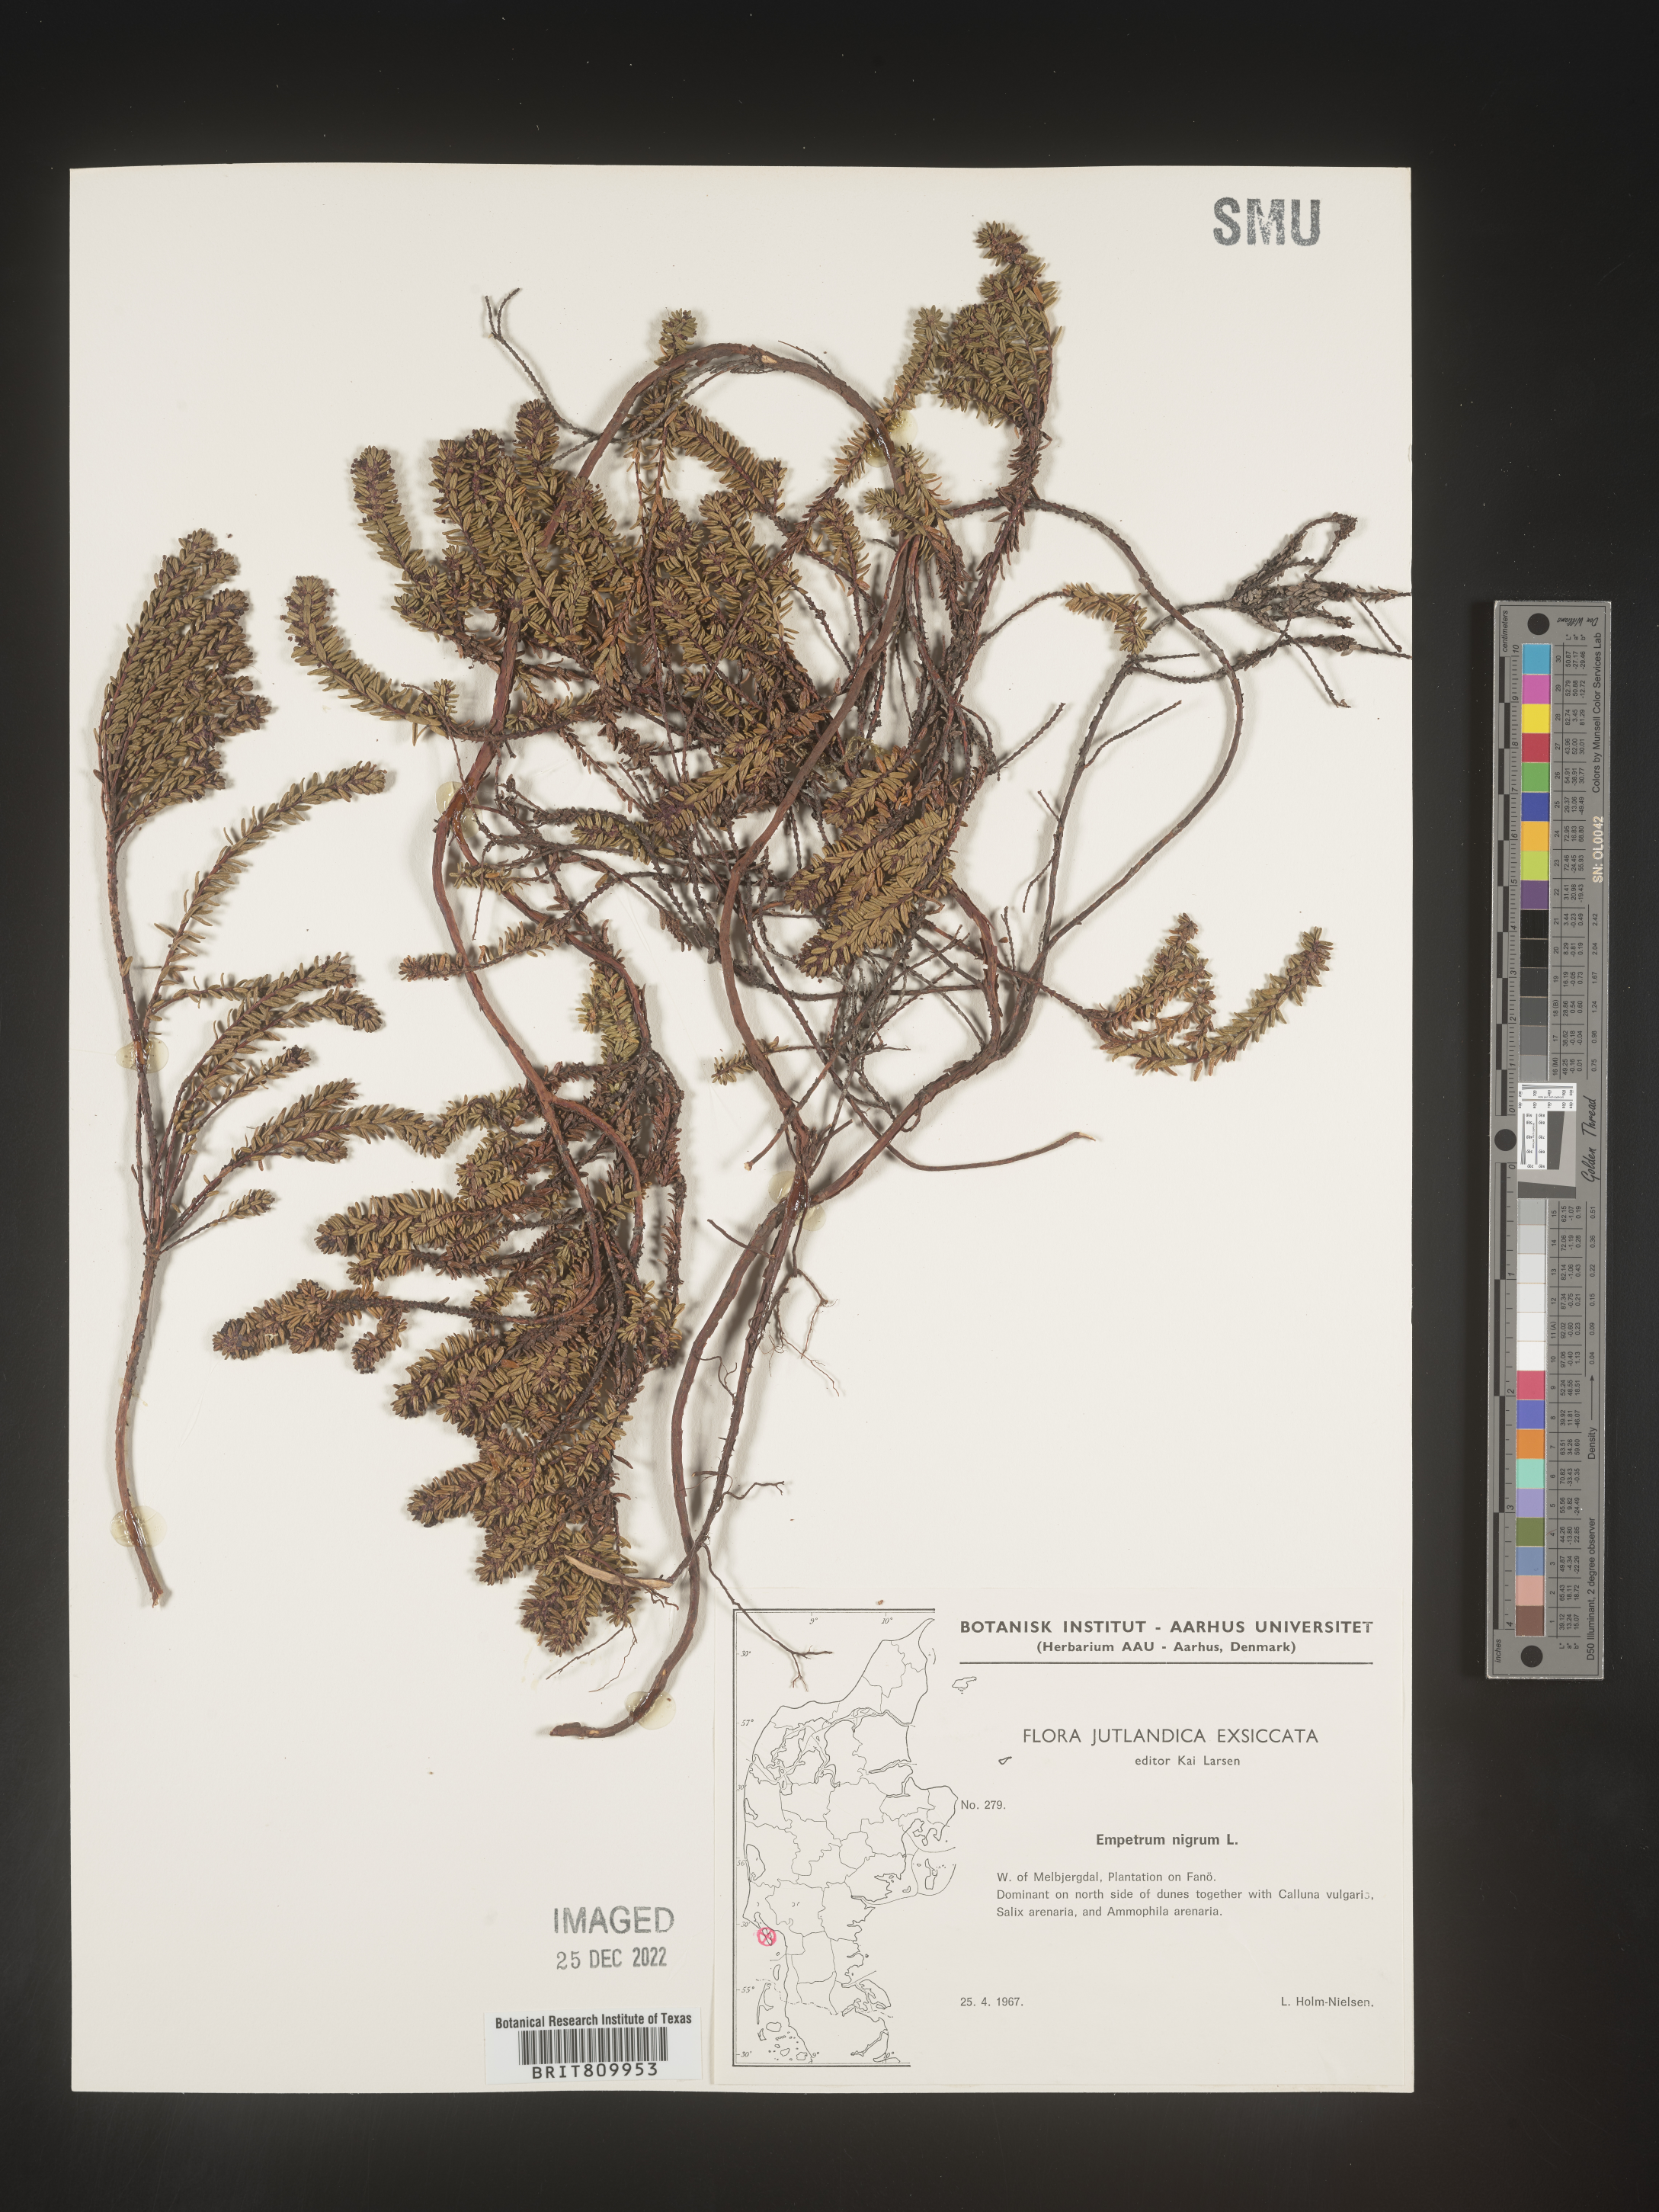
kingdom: Plantae
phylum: Tracheophyta
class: Magnoliopsida
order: Ericales
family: Ericaceae
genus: Empetrum
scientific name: Empetrum
